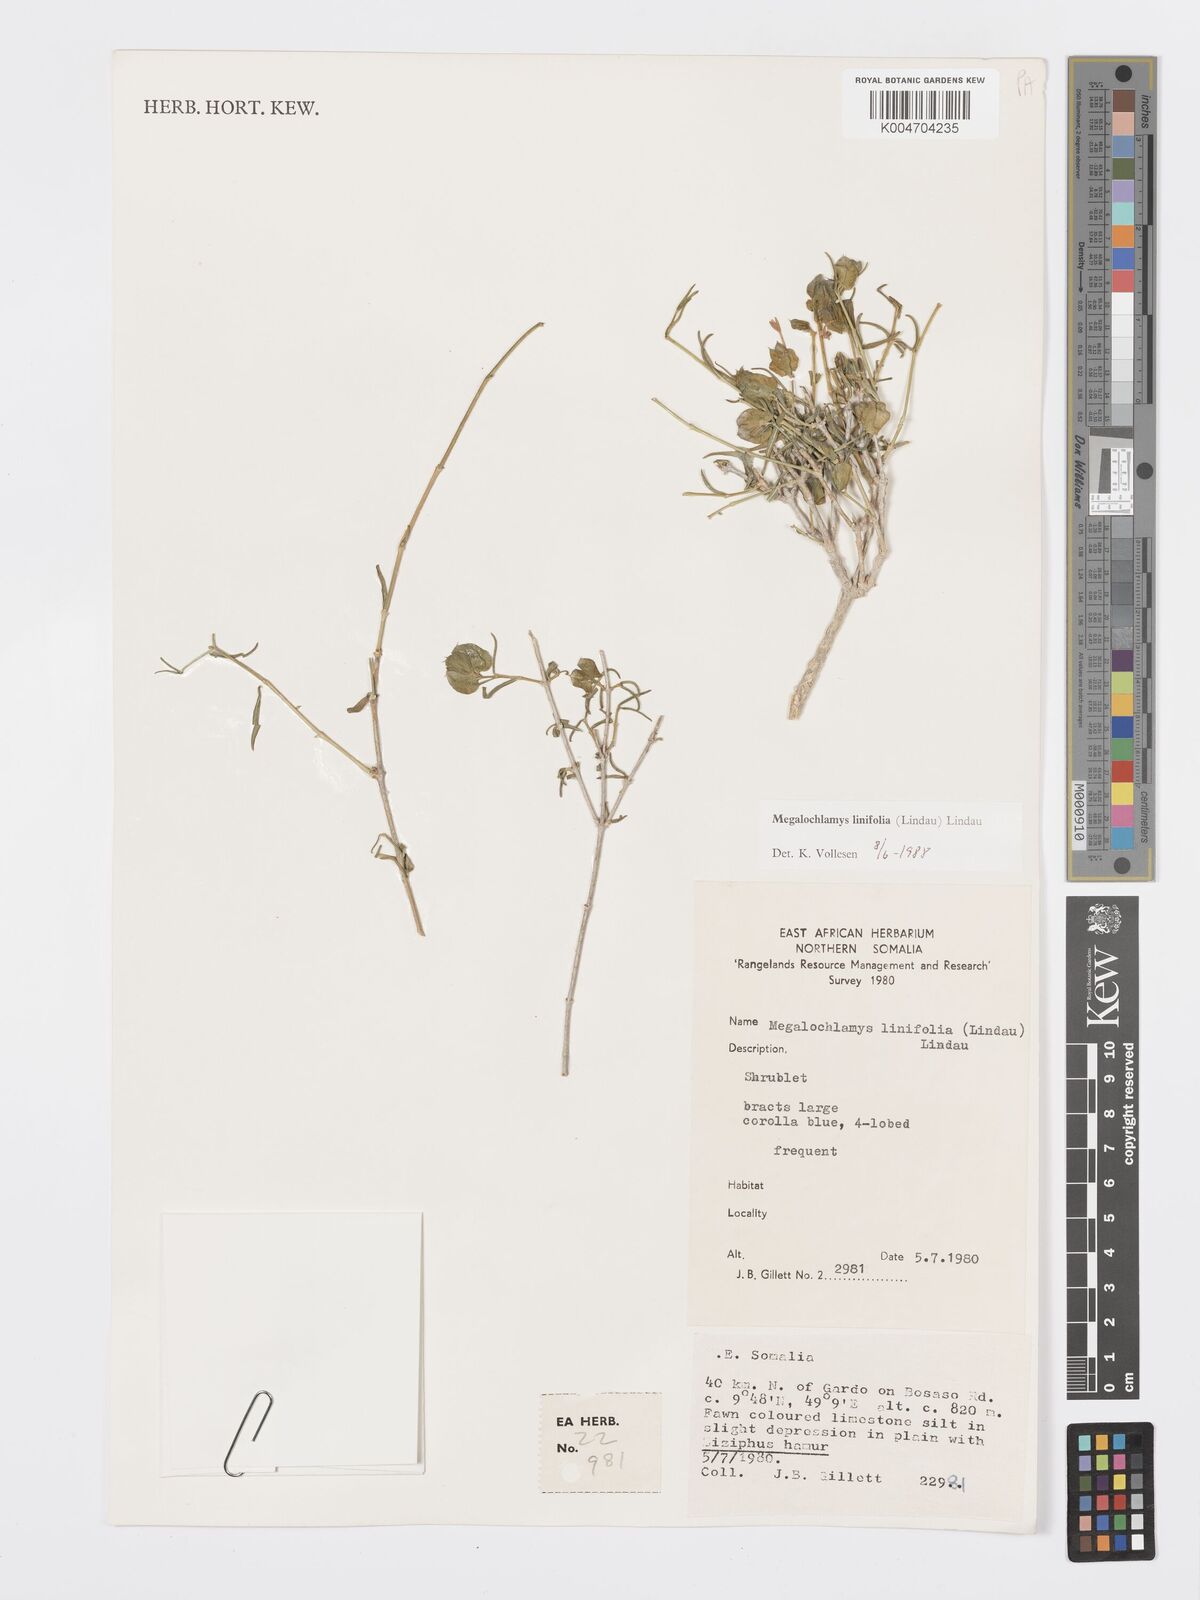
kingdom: Plantae
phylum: Tracheophyta
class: Magnoliopsida
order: Lamiales
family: Acanthaceae
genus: Megalochlamys
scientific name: Megalochlamys linifolia
